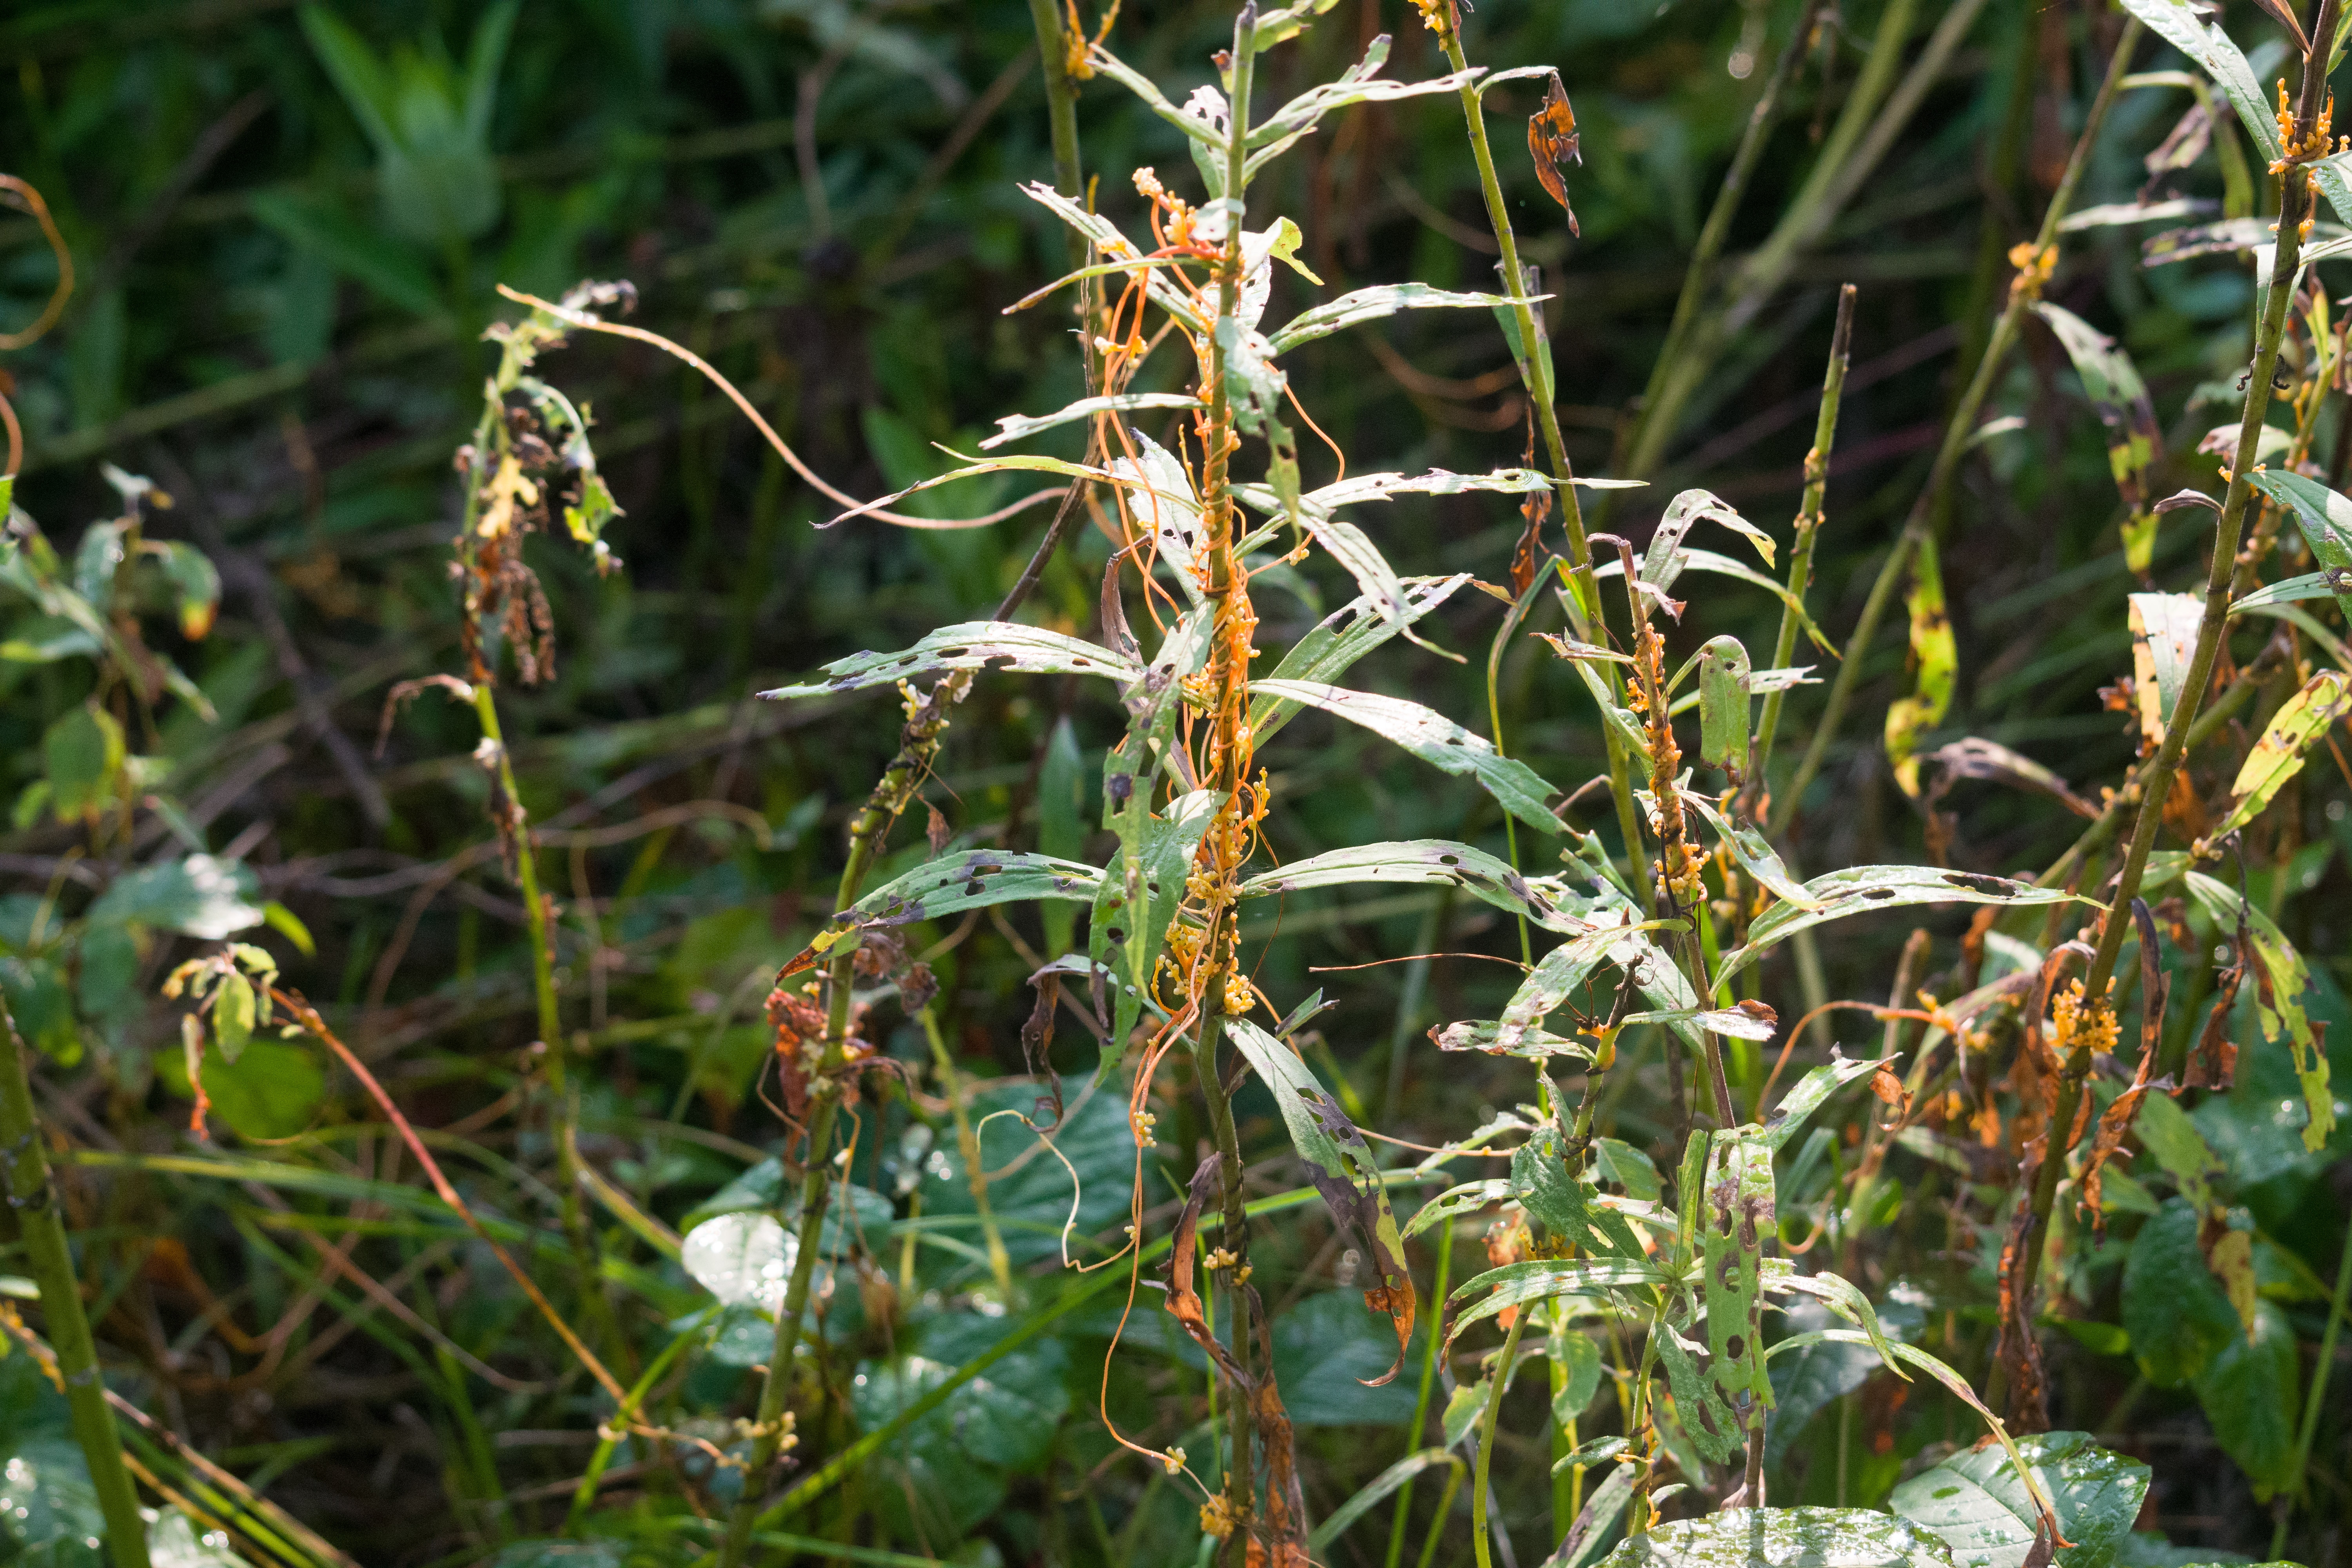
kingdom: Plantae
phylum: Tracheophyta
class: Magnoliopsida
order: Solanales
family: Convolvulaceae
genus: Cuscuta
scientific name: Cuscuta gronovii
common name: Dodder
